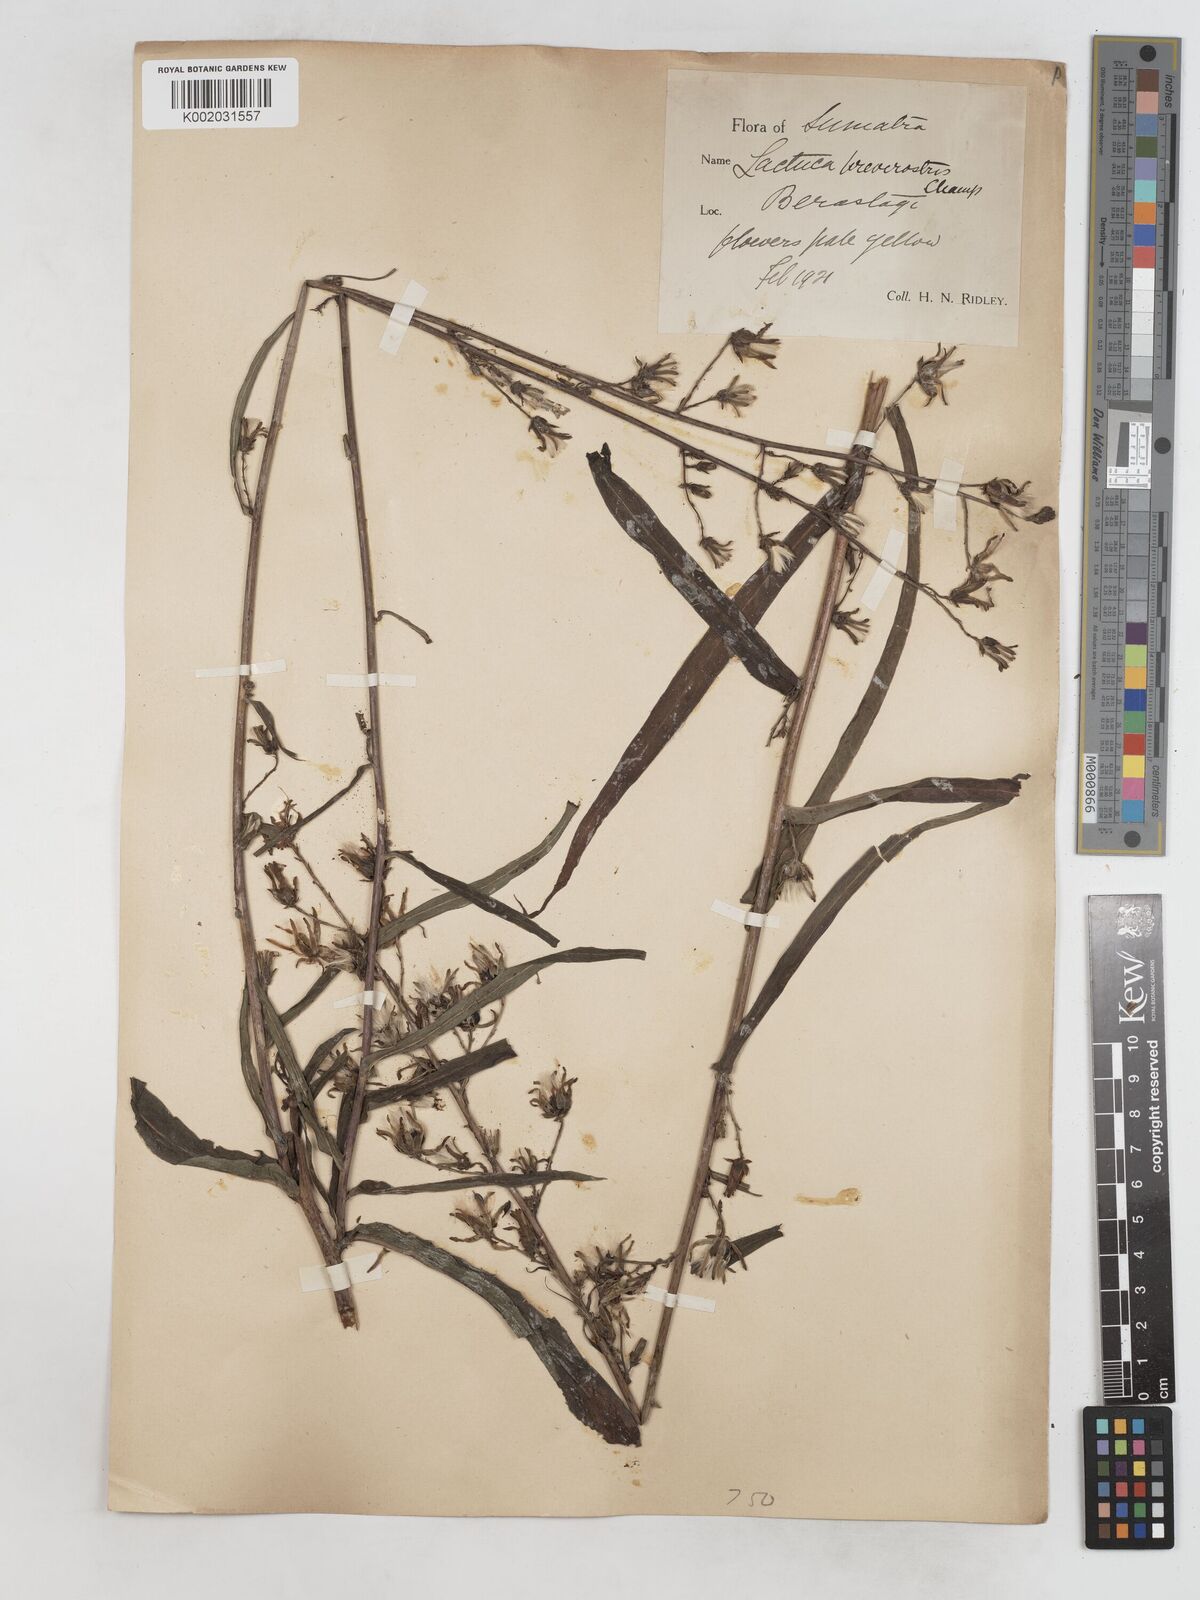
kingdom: Plantae
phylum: Tracheophyta
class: Magnoliopsida
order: Asterales
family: Asteraceae
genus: Lactuca
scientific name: Lactuca indica
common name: Wild lettuce
